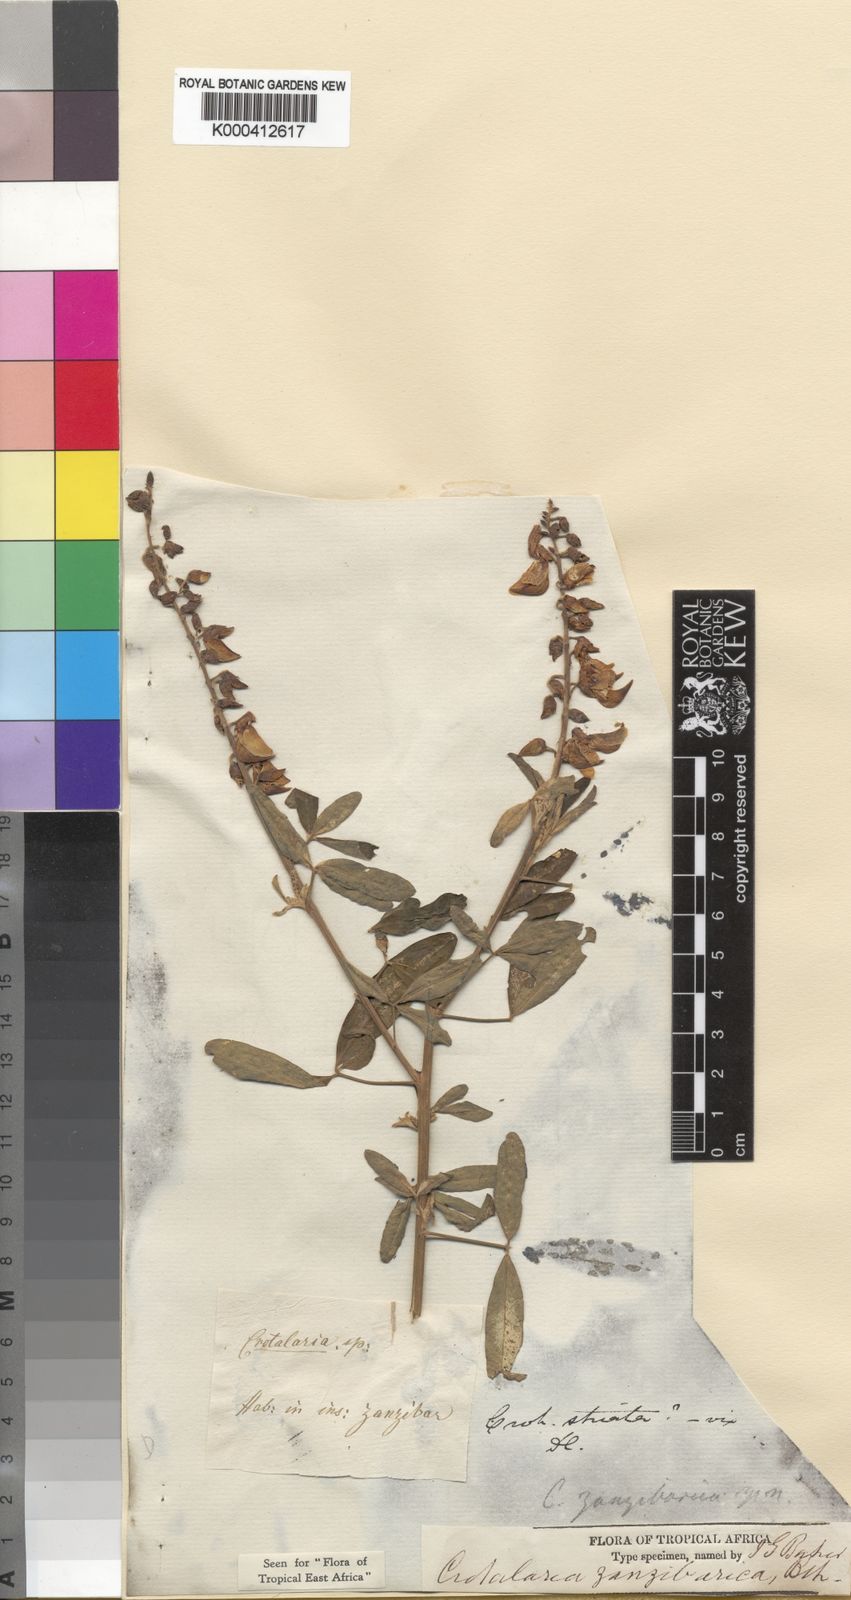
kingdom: Plantae
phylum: Tracheophyta
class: Magnoliopsida
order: Fabales
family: Fabaceae
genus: Crotalaria
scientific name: Crotalaria trichotoma
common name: West indian rattlebox
